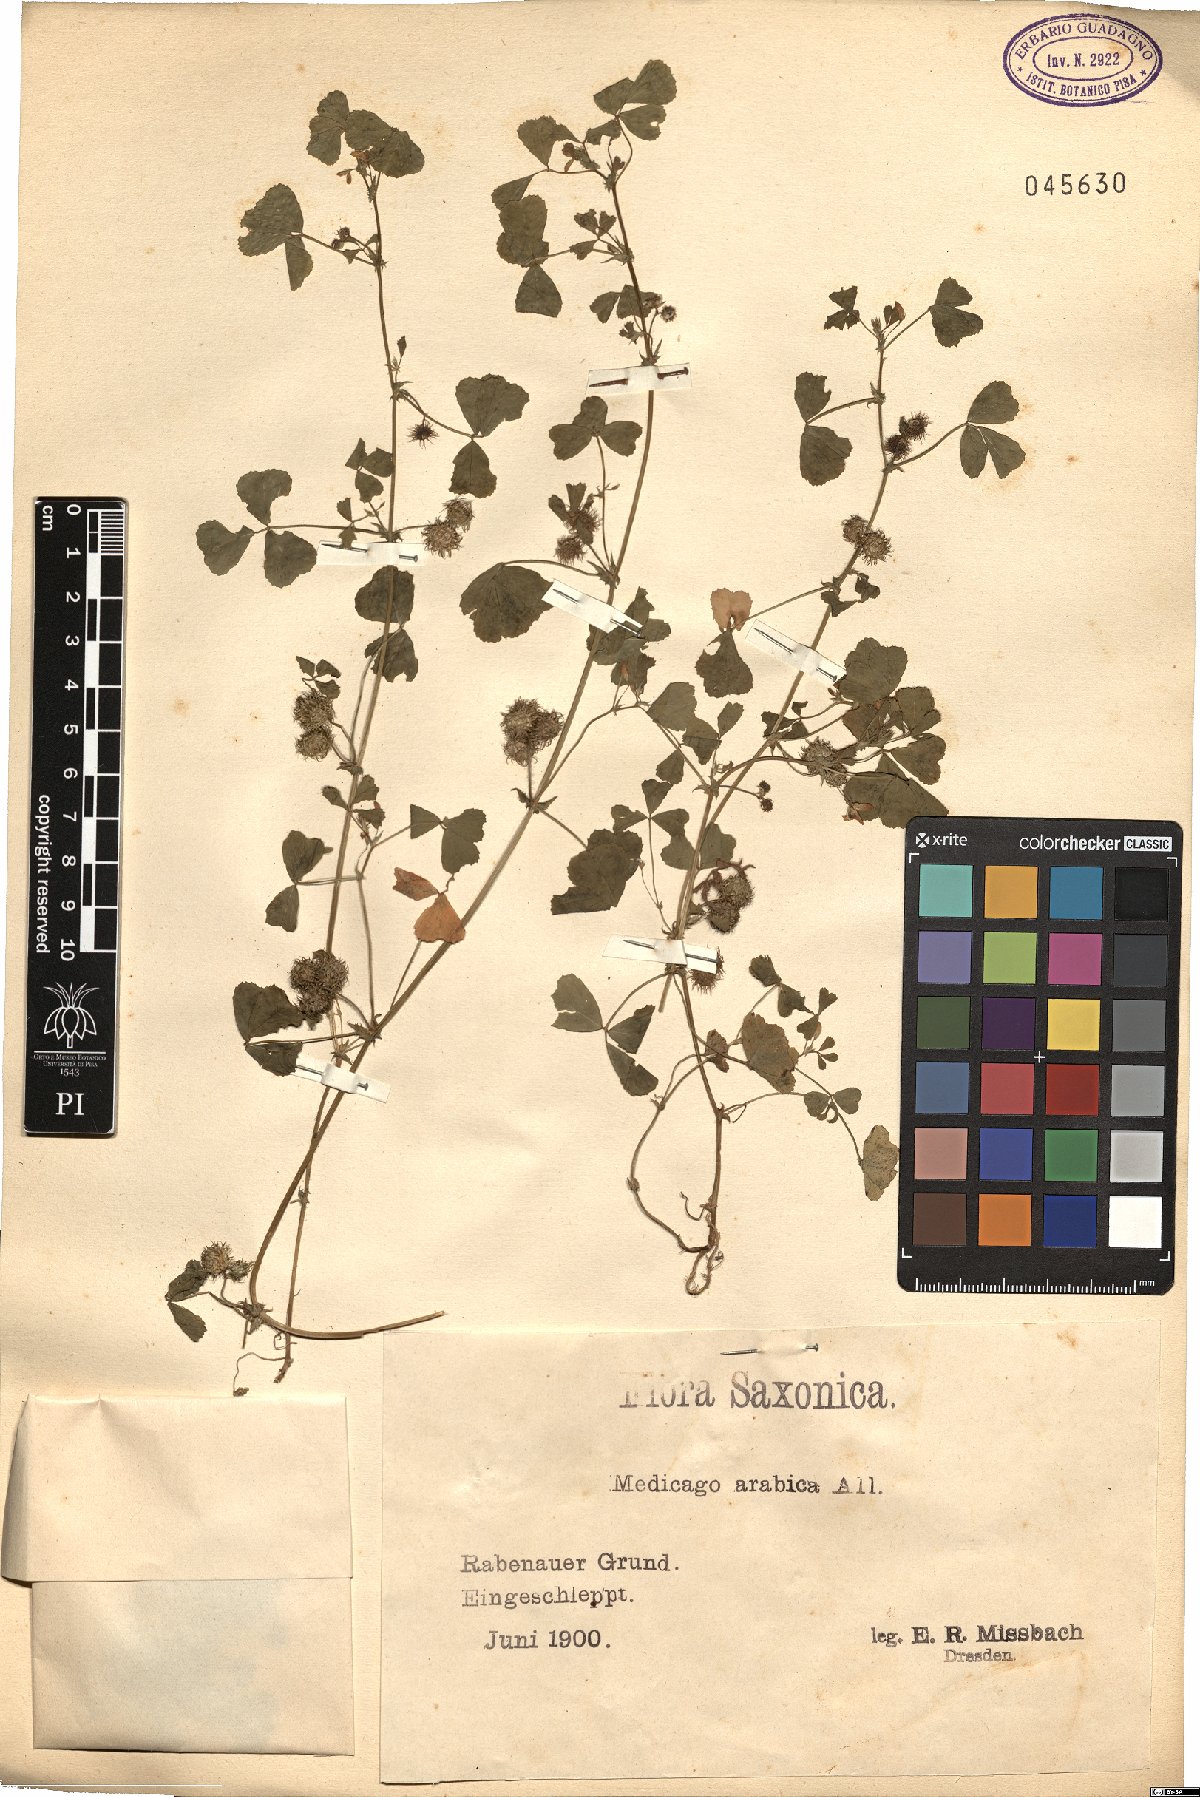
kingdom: Plantae
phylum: Tracheophyta
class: Magnoliopsida
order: Fabales
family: Fabaceae
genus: Medicago
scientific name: Medicago arabica
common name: Spotted medick
